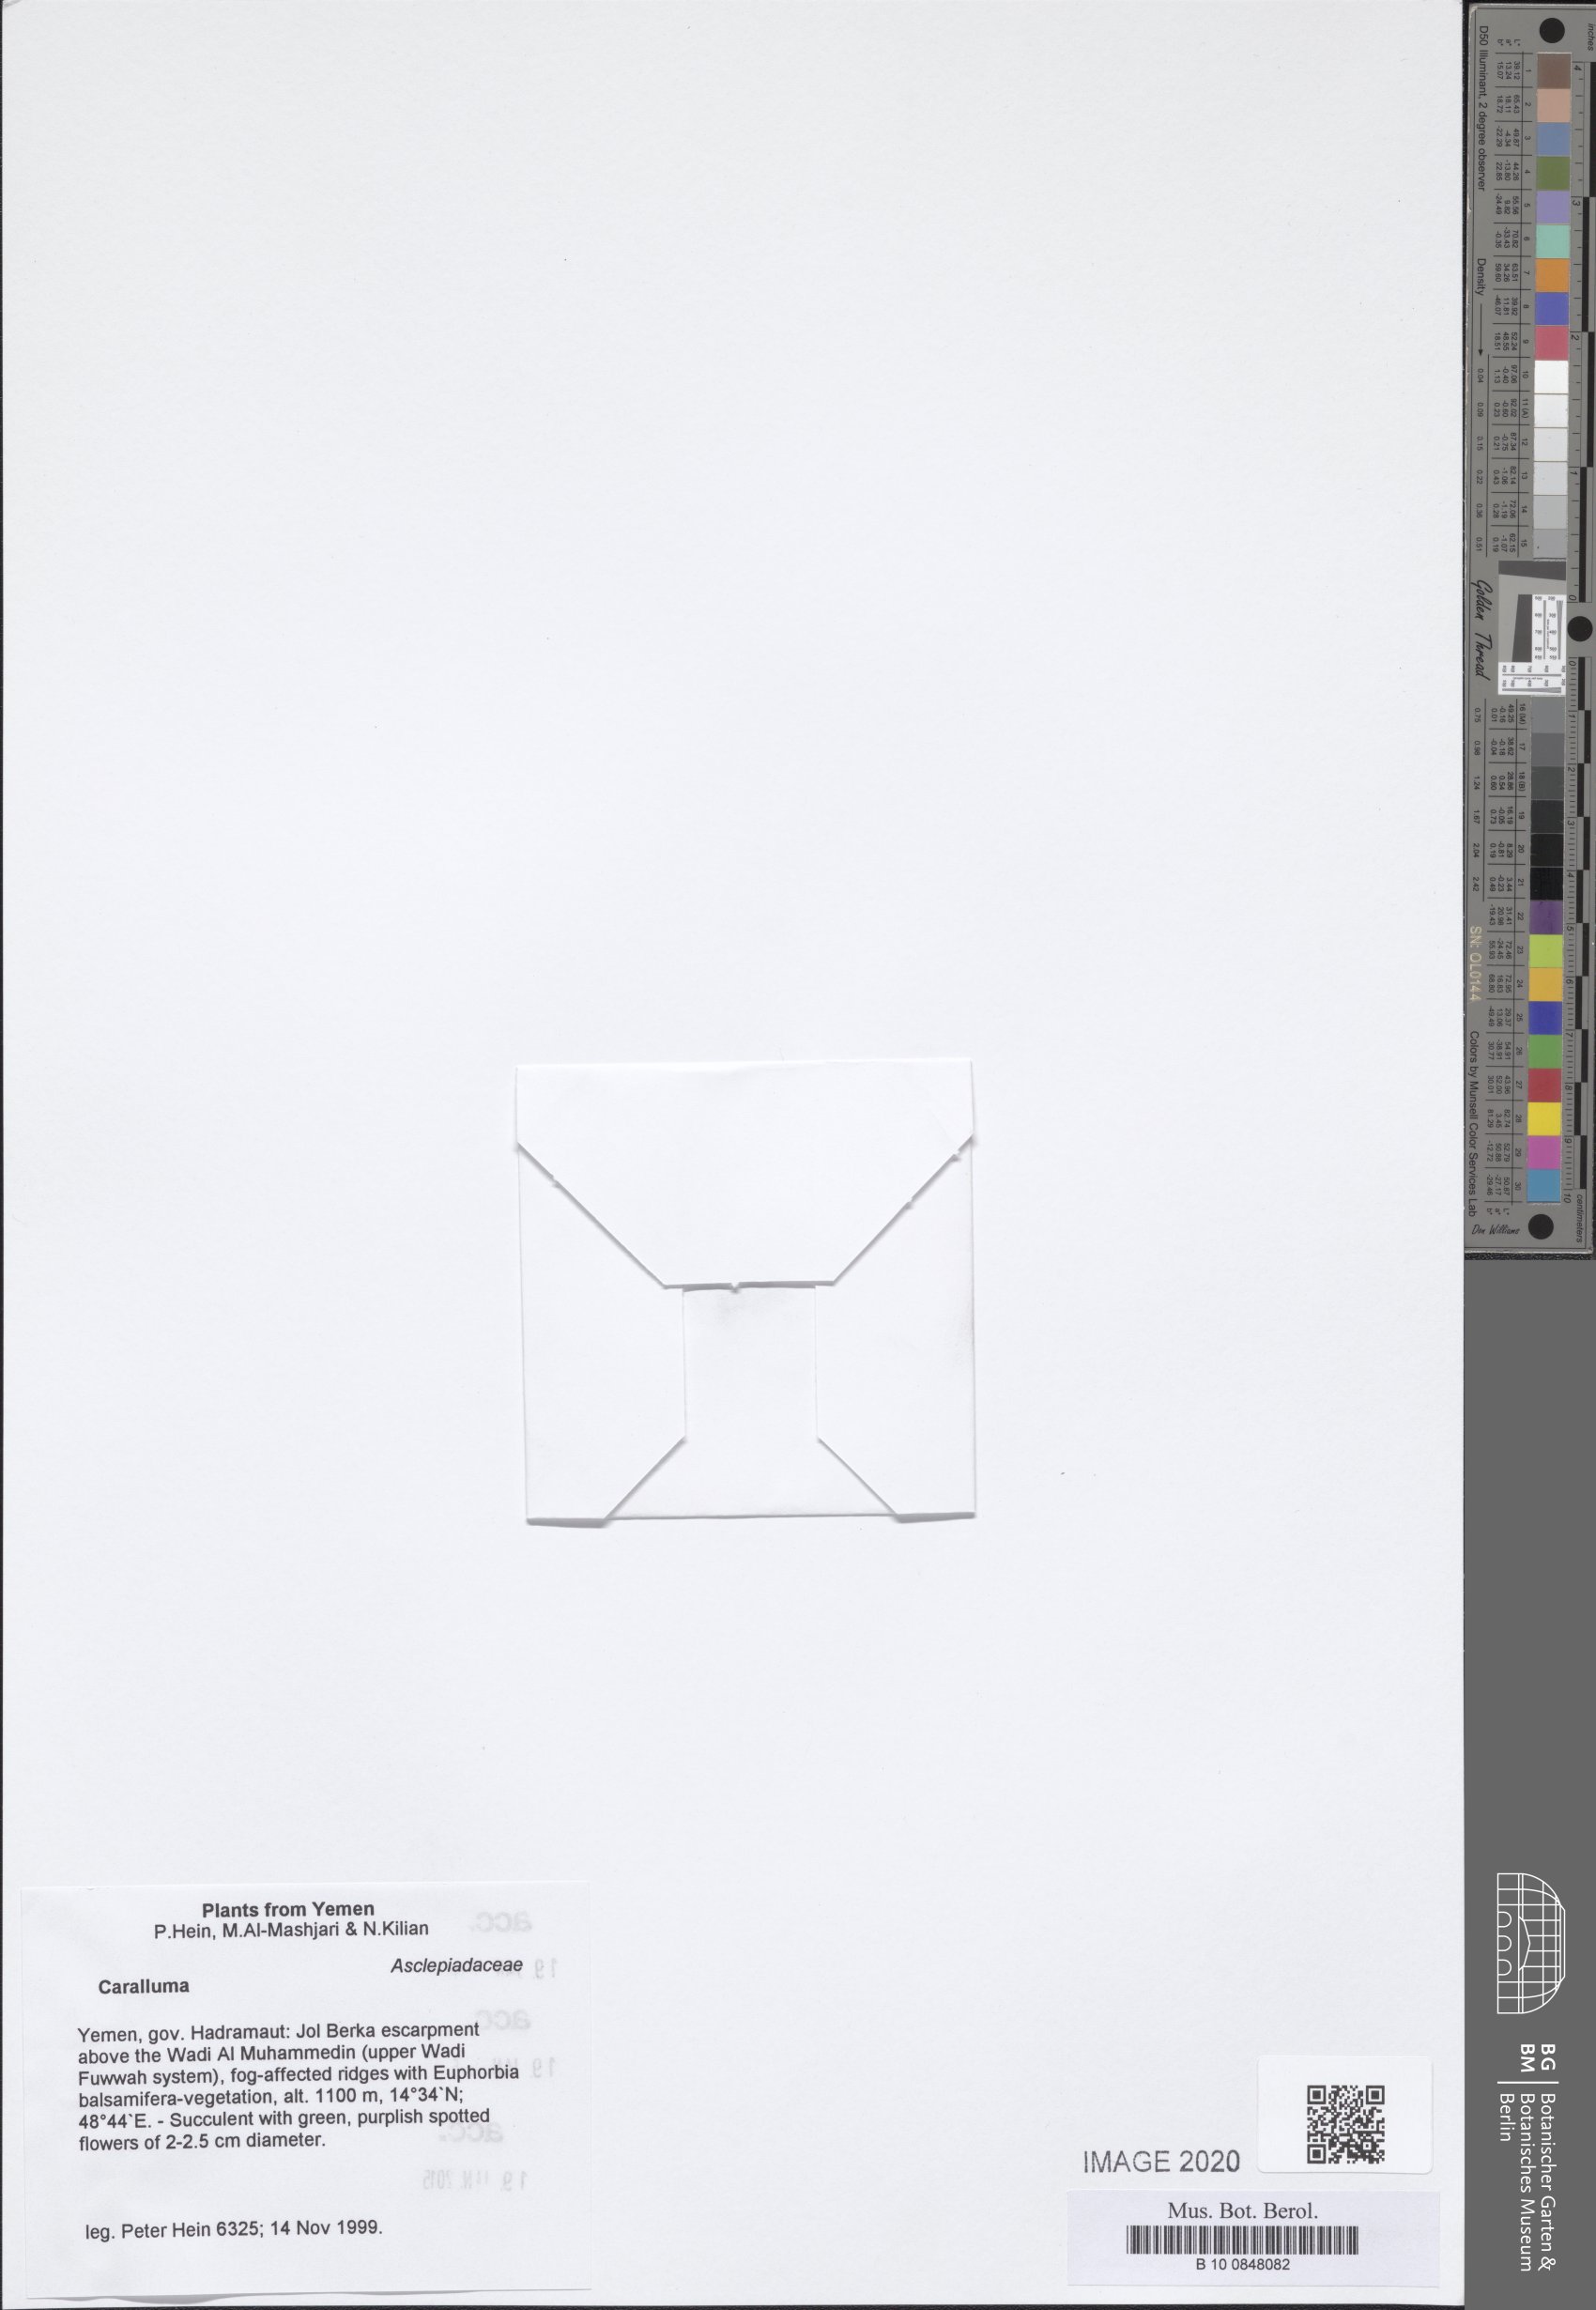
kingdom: Plantae
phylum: Tracheophyta
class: Magnoliopsida
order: Gentianales
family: Apocynaceae
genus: Ceropegia
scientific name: Ceropegia dolichocarpa
